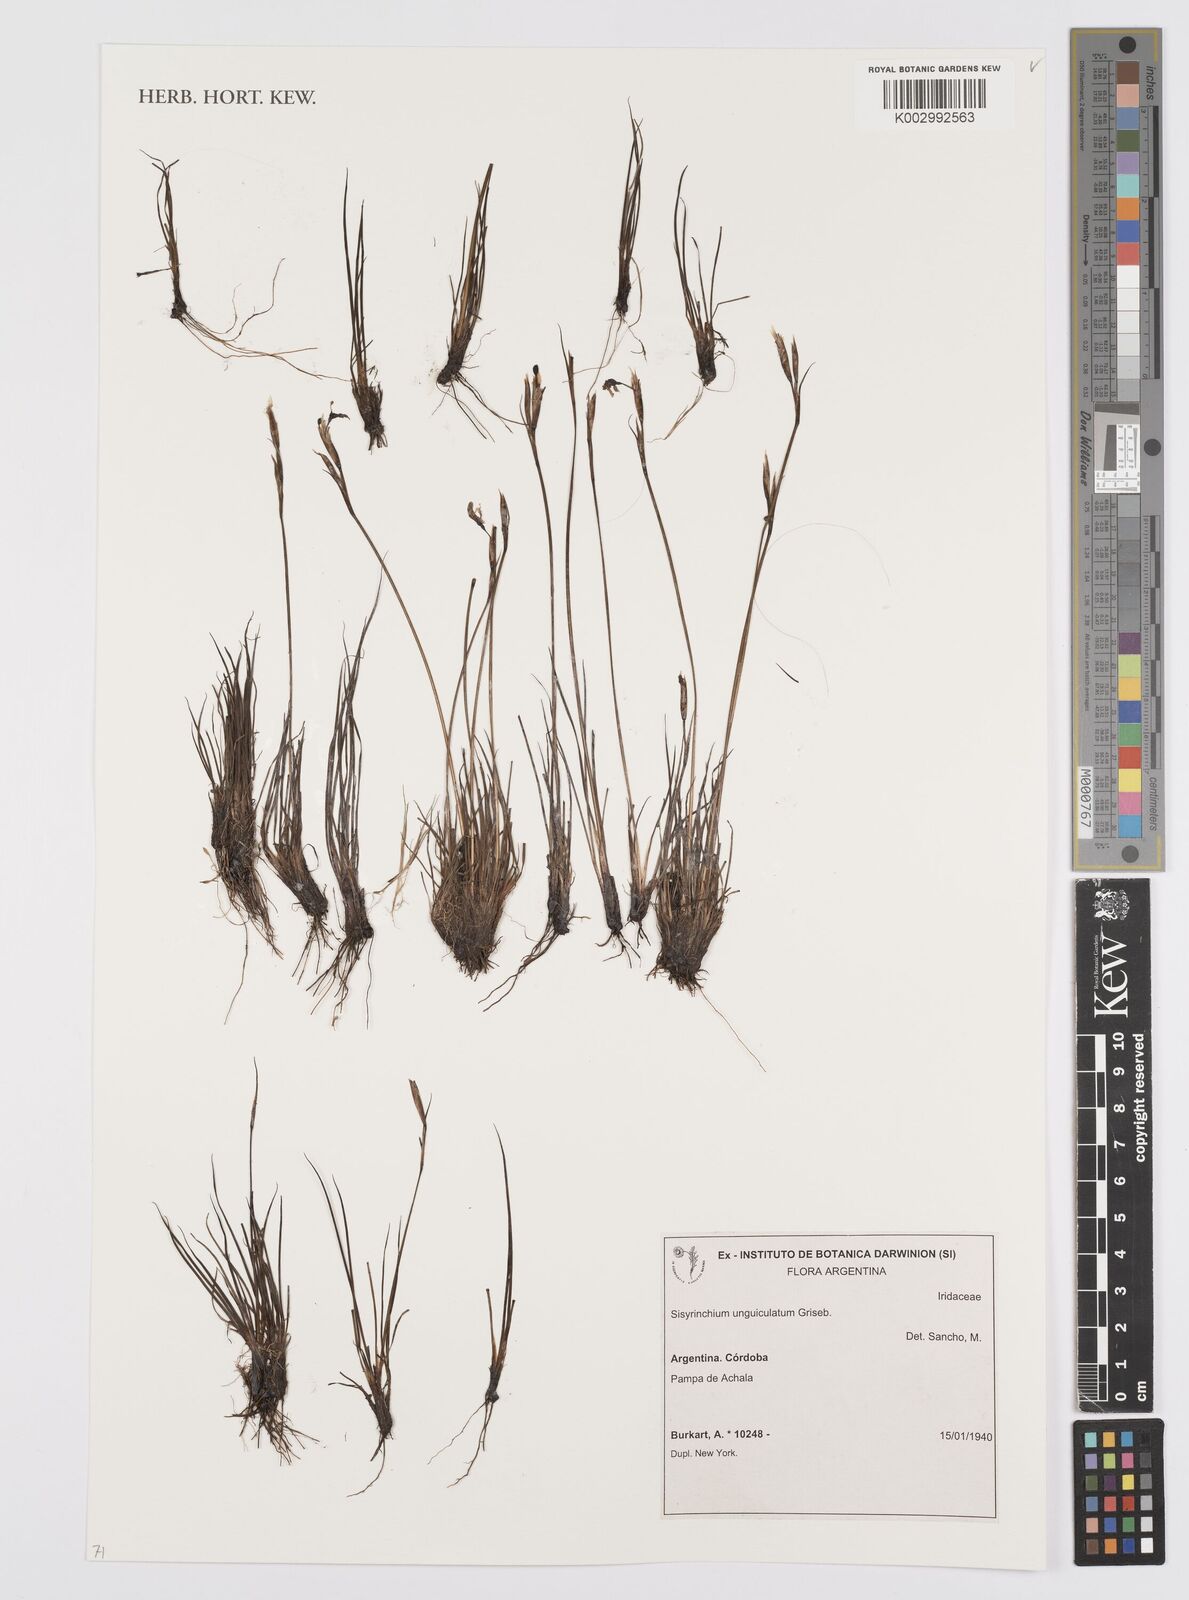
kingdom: Plantae
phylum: Tracheophyta
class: Liliopsida
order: Asparagales
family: Iridaceae
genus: Sisyrinchium
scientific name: Sisyrinchium unguiculatum
